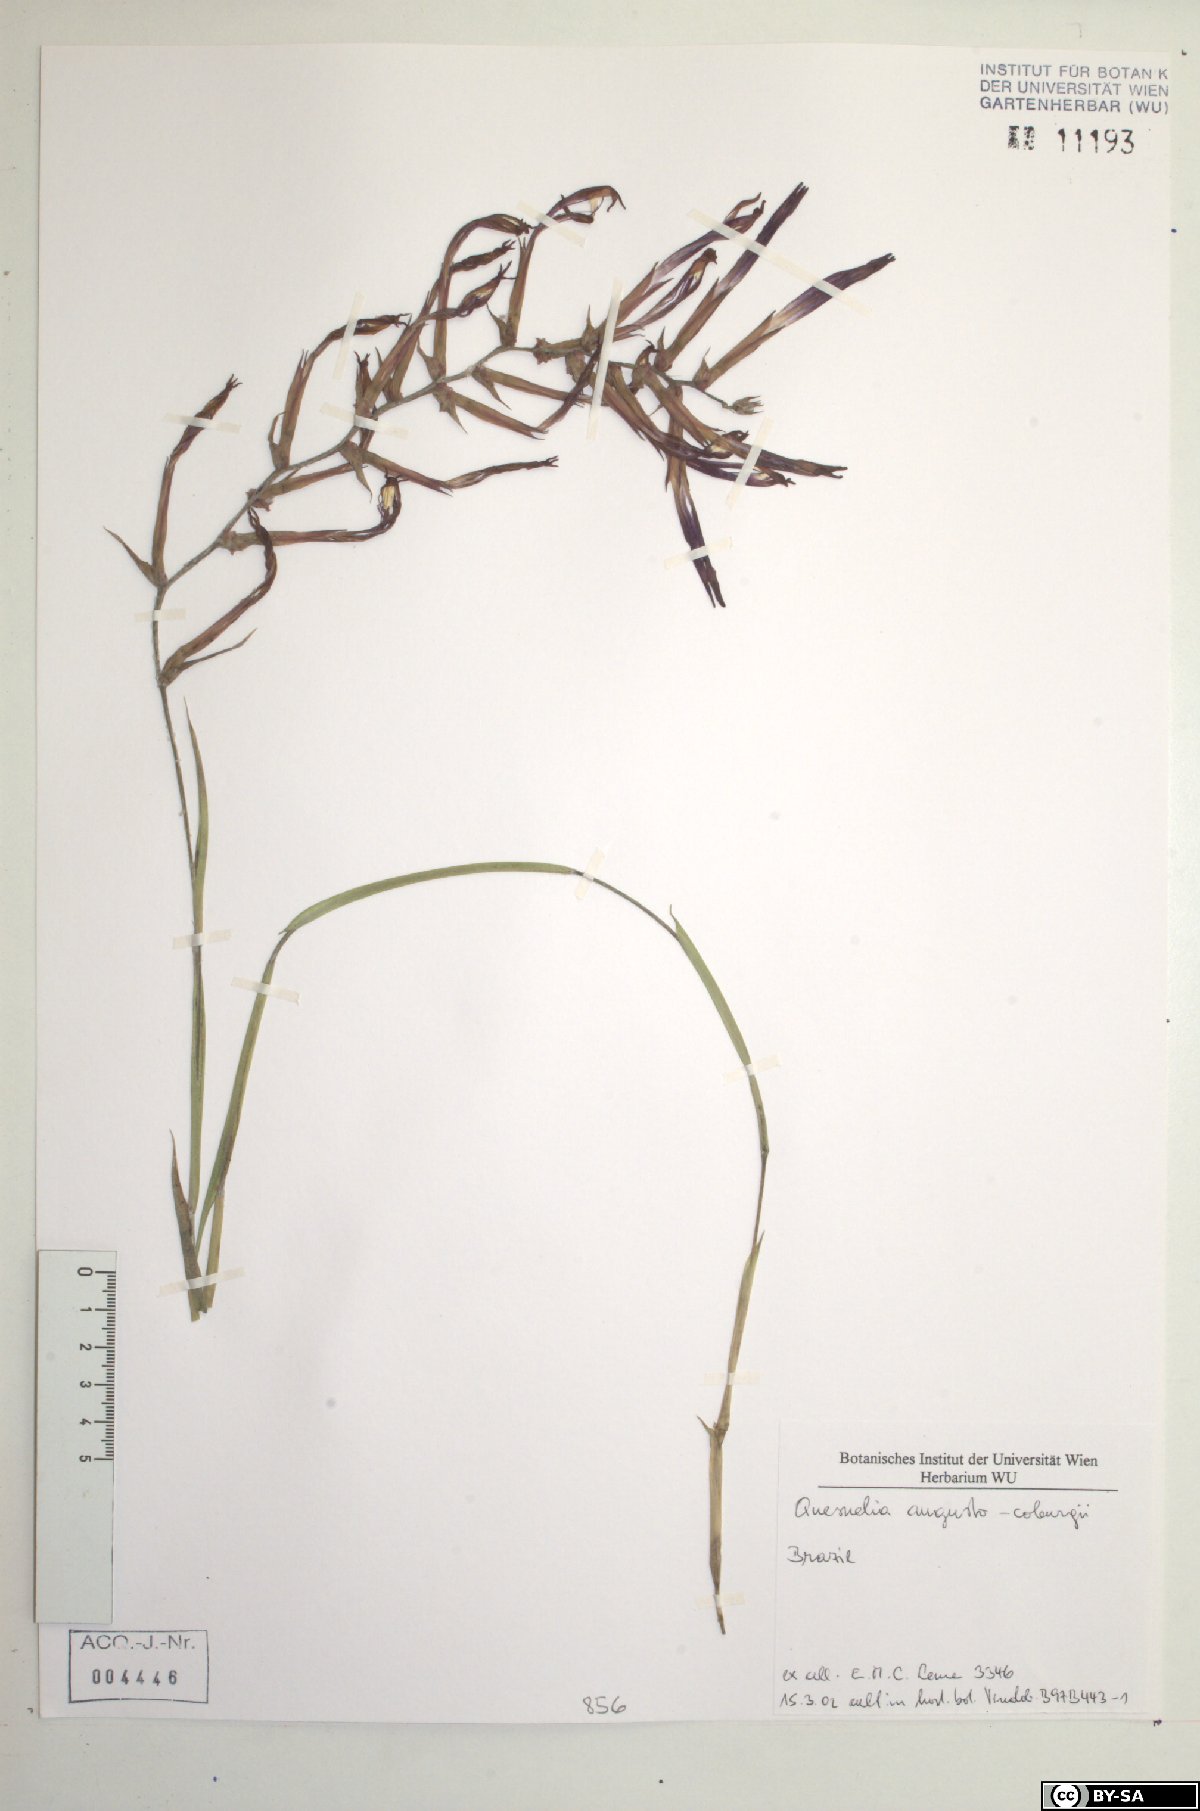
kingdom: Plantae
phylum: Tracheophyta
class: Liliopsida
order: Poales
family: Bromeliaceae
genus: Quesnelia
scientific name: Quesnelia augustocoburgi
